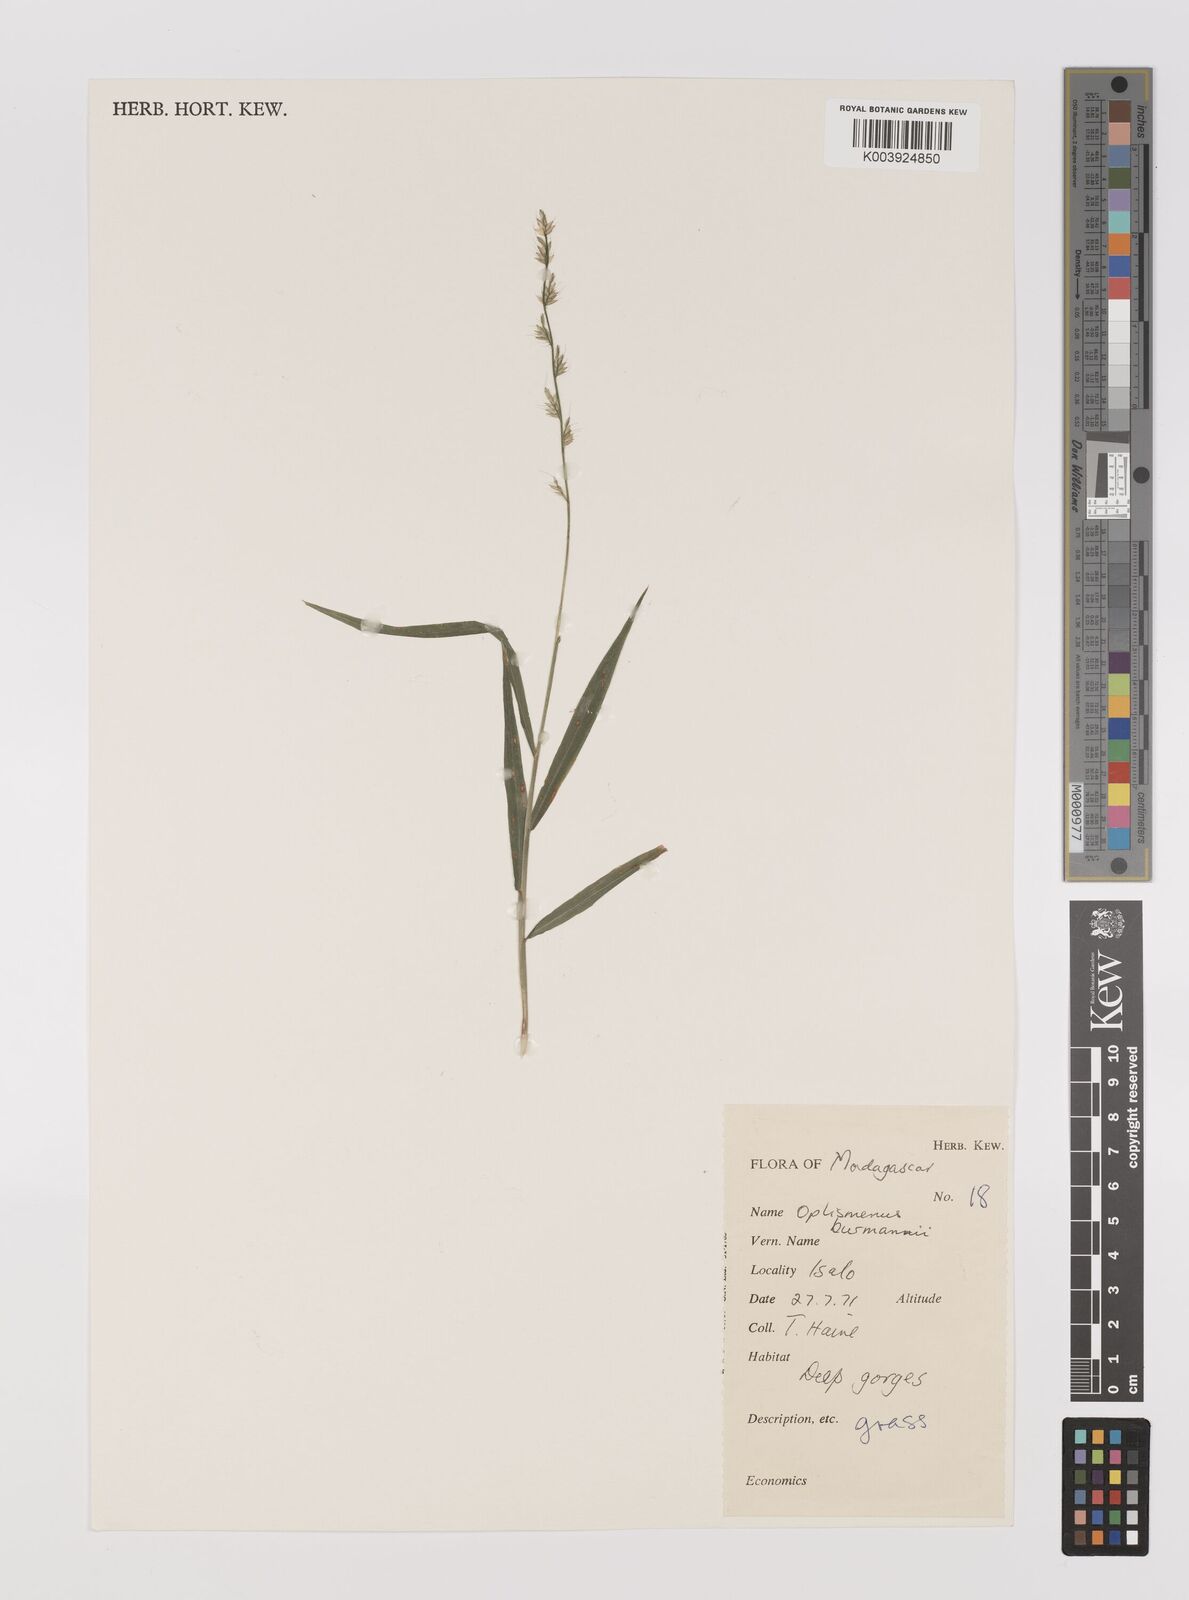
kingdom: Plantae
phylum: Tracheophyta
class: Liliopsida
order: Poales
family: Poaceae
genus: Oplismenus
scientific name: Oplismenus burmanni
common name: Burmann's basketgrass
